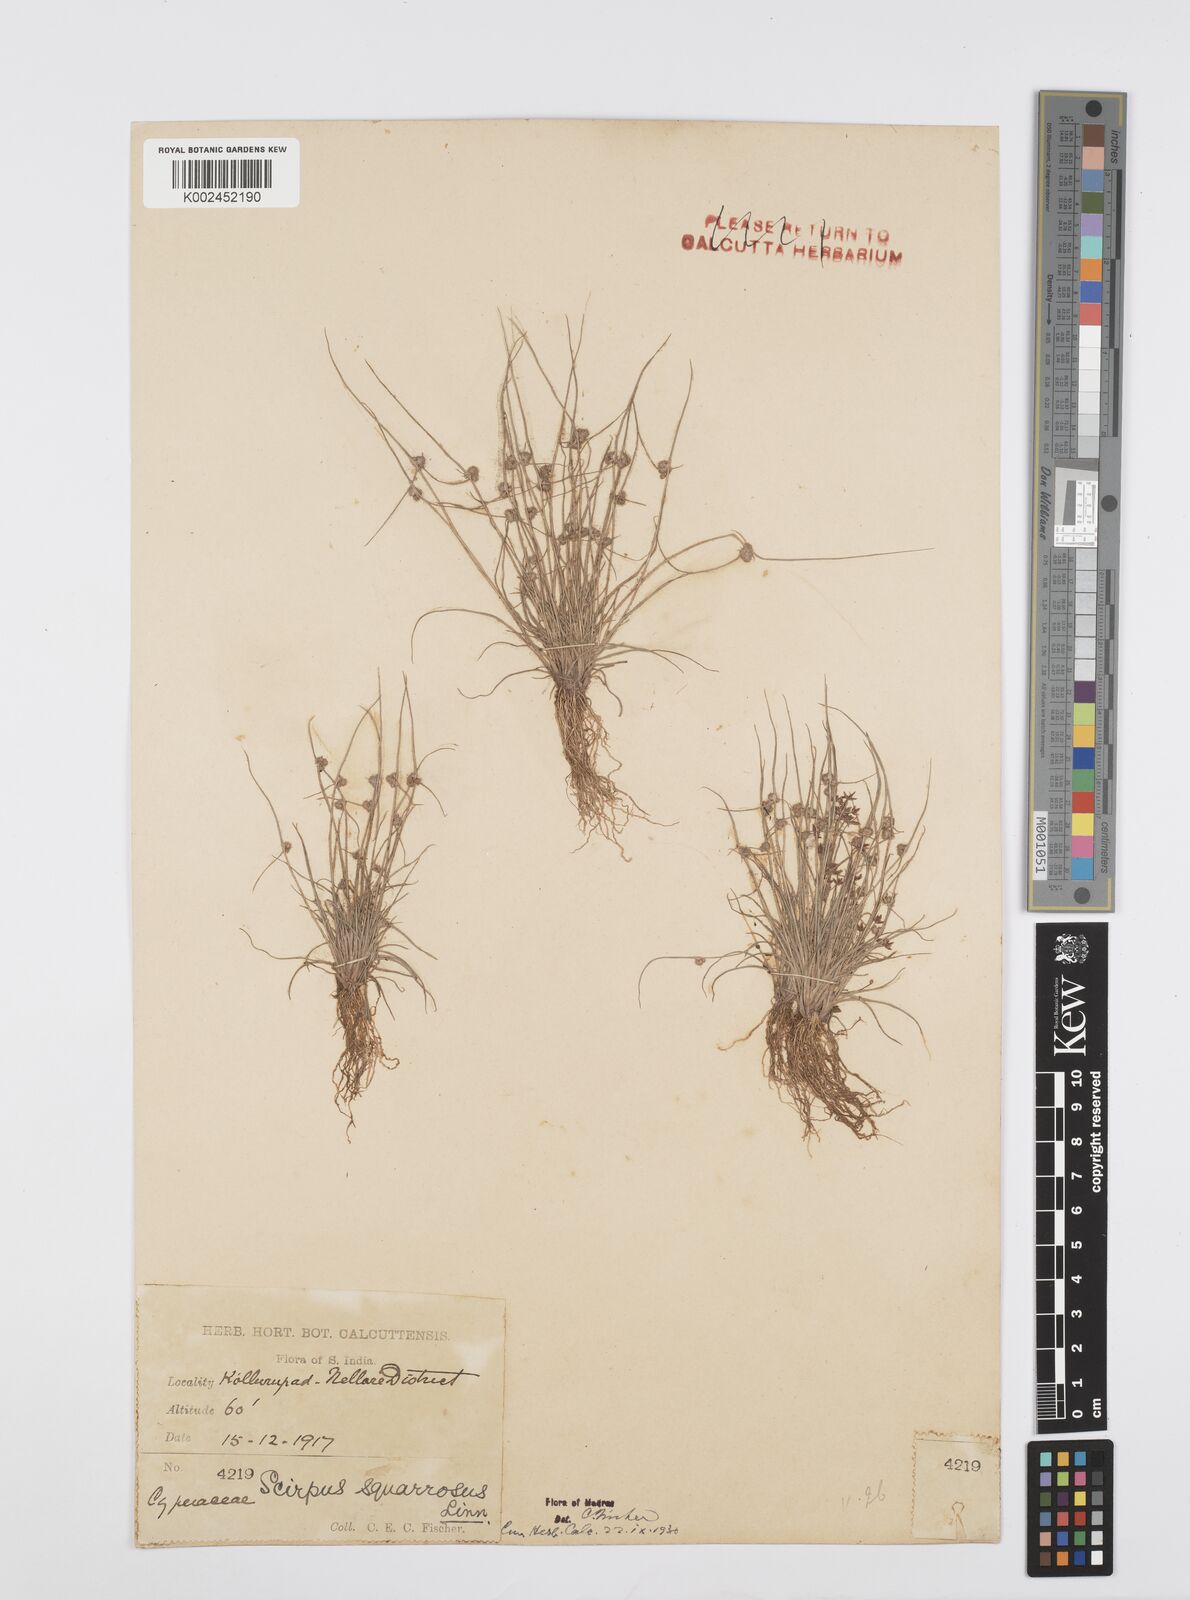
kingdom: Plantae
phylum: Tracheophyta
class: Liliopsida
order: Poales
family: Cyperaceae
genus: Cyperus
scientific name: Cyperus squarrosus
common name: Awned cyperus
